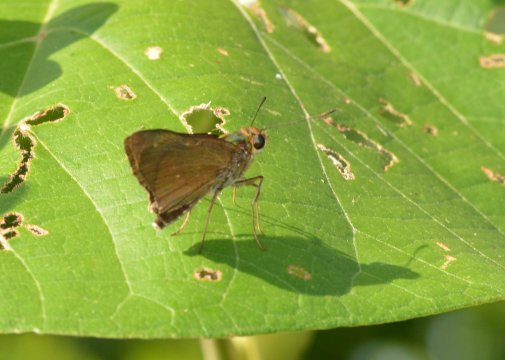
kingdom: Animalia
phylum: Arthropoda
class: Insecta
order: Lepidoptera
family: Hesperiidae
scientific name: Hesperiidae
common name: Skippers
